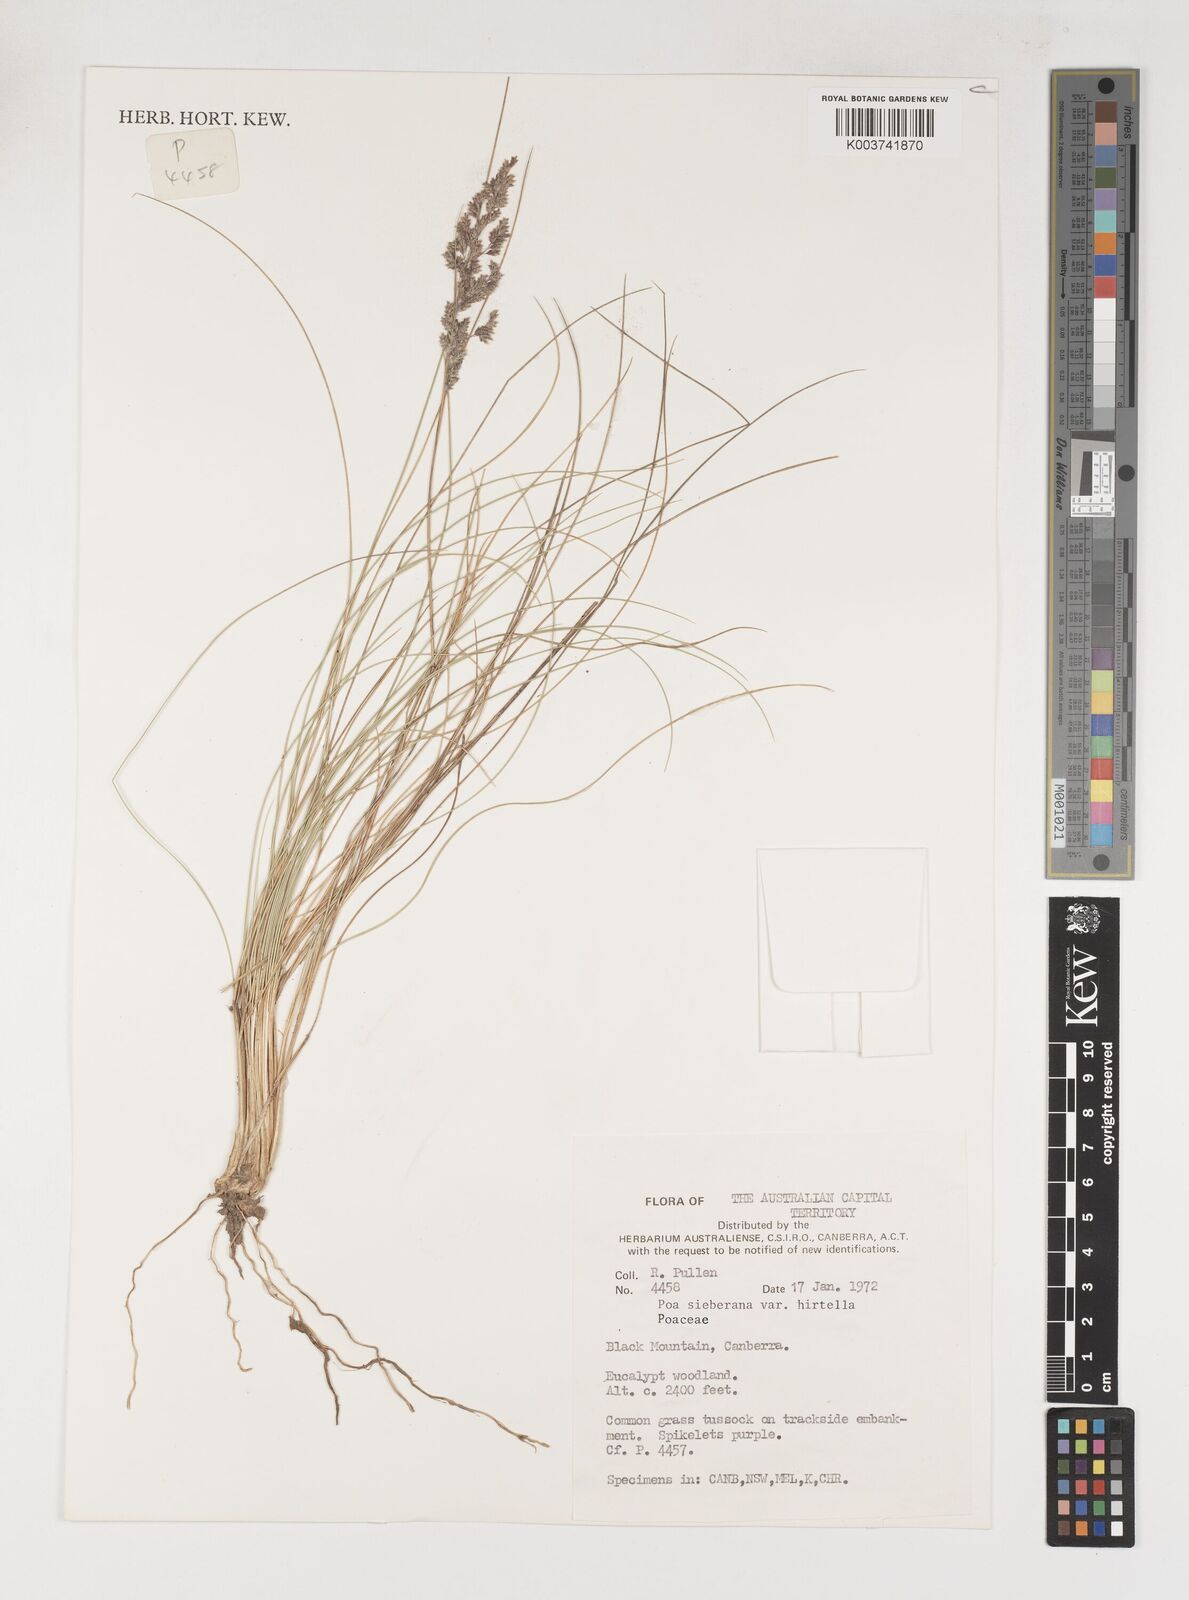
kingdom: Plantae
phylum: Tracheophyta
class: Liliopsida
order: Poales
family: Poaceae
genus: Poa
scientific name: Poa sieberiana
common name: Tussock poa
